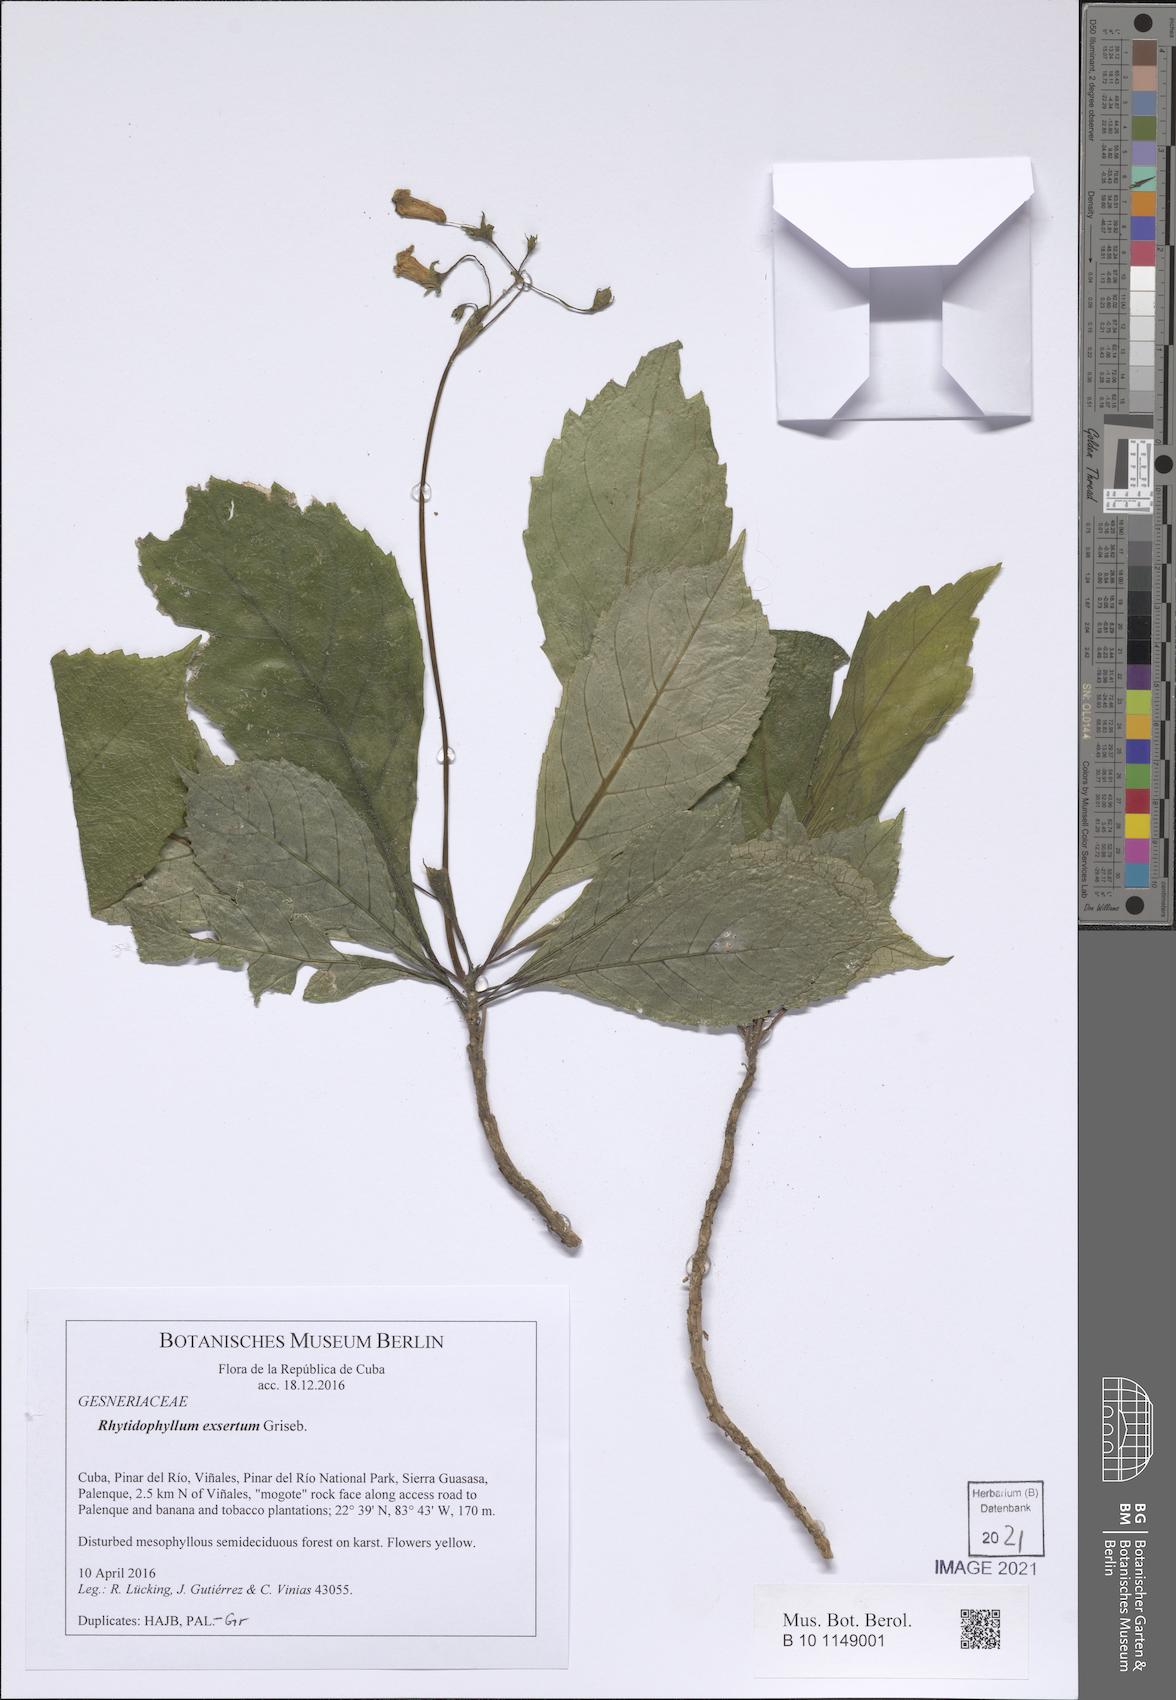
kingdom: Plantae
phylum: Tracheophyta
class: Magnoliopsida
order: Lamiales
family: Gesneriaceae
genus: Gesneria
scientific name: Gesneria humilis
